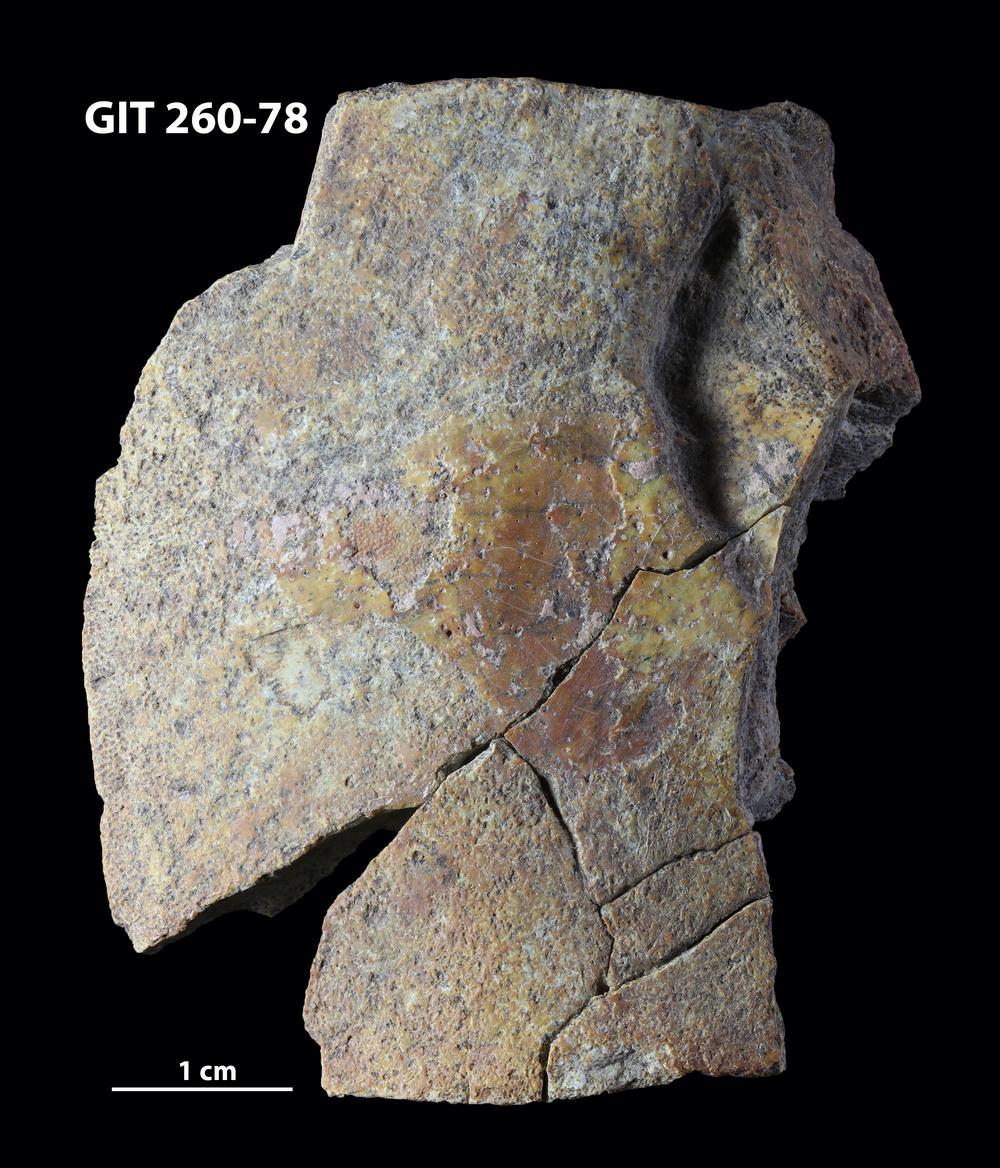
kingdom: Animalia
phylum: Chordata
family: Homostiidae
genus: Homostius
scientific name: Homostius
